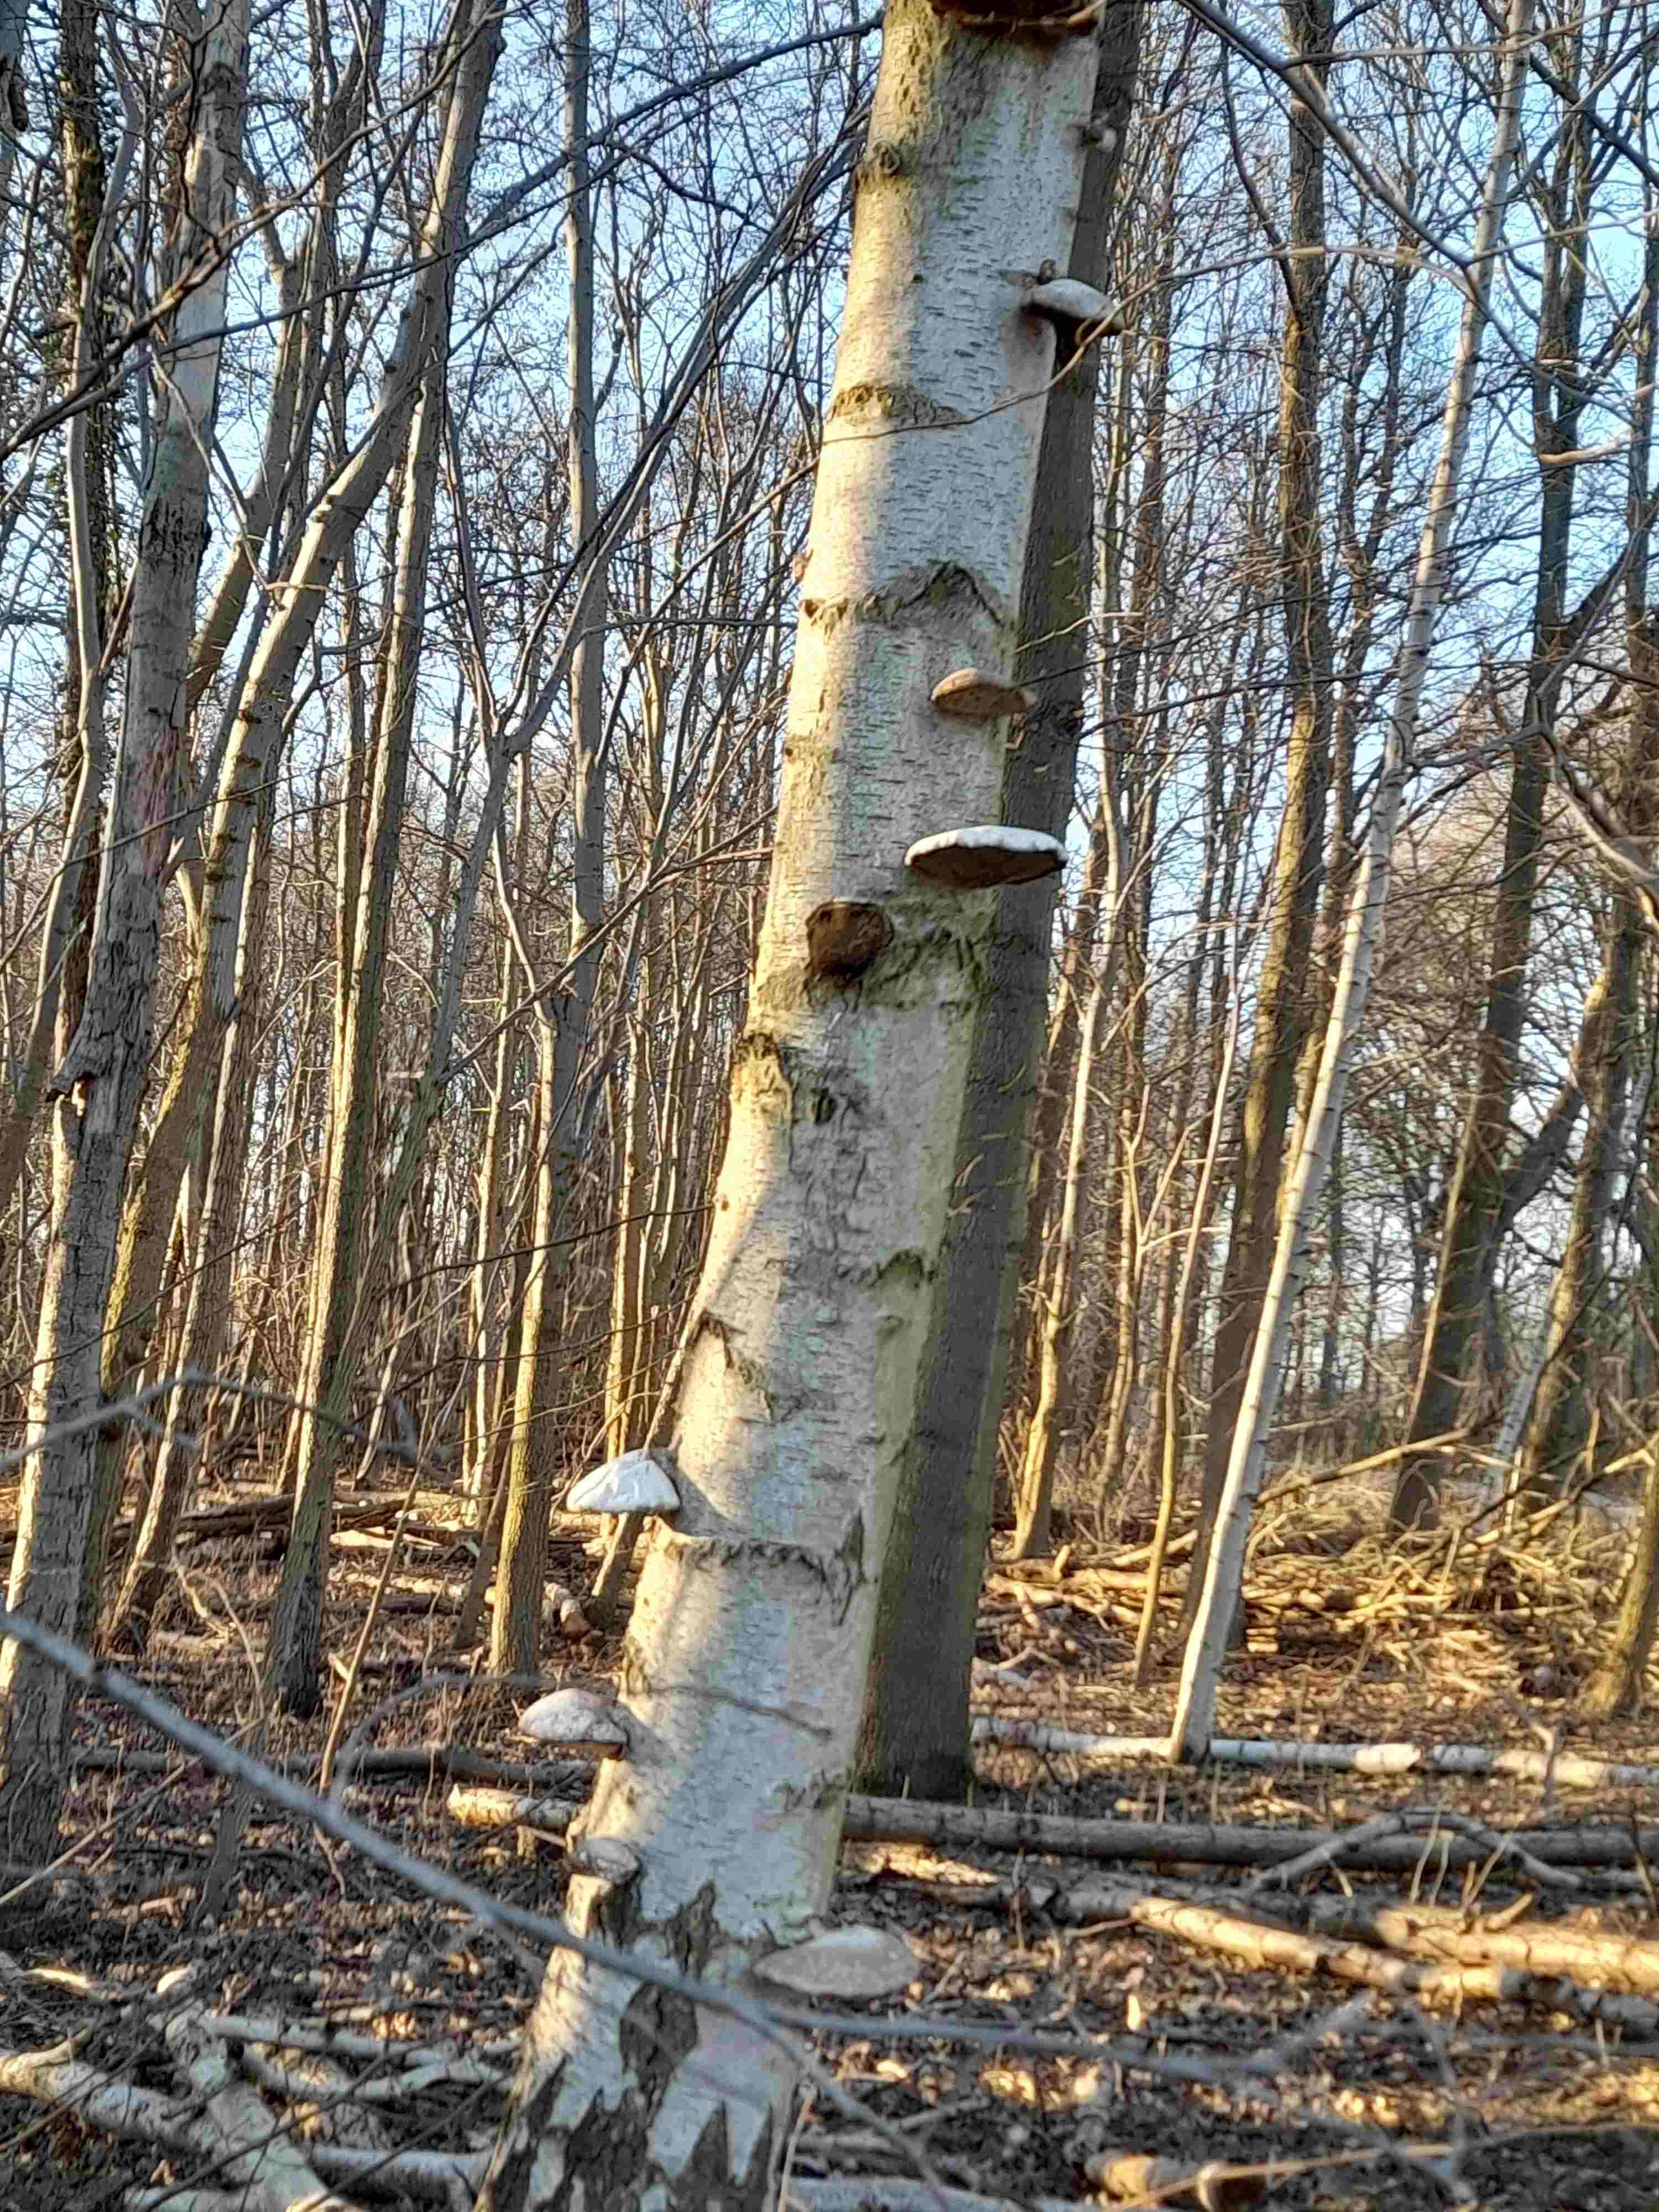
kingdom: Fungi
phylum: Basidiomycota
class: Agaricomycetes
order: Polyporales
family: Fomitopsidaceae
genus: Fomitopsis
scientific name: Fomitopsis betulina
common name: birkeporesvamp
